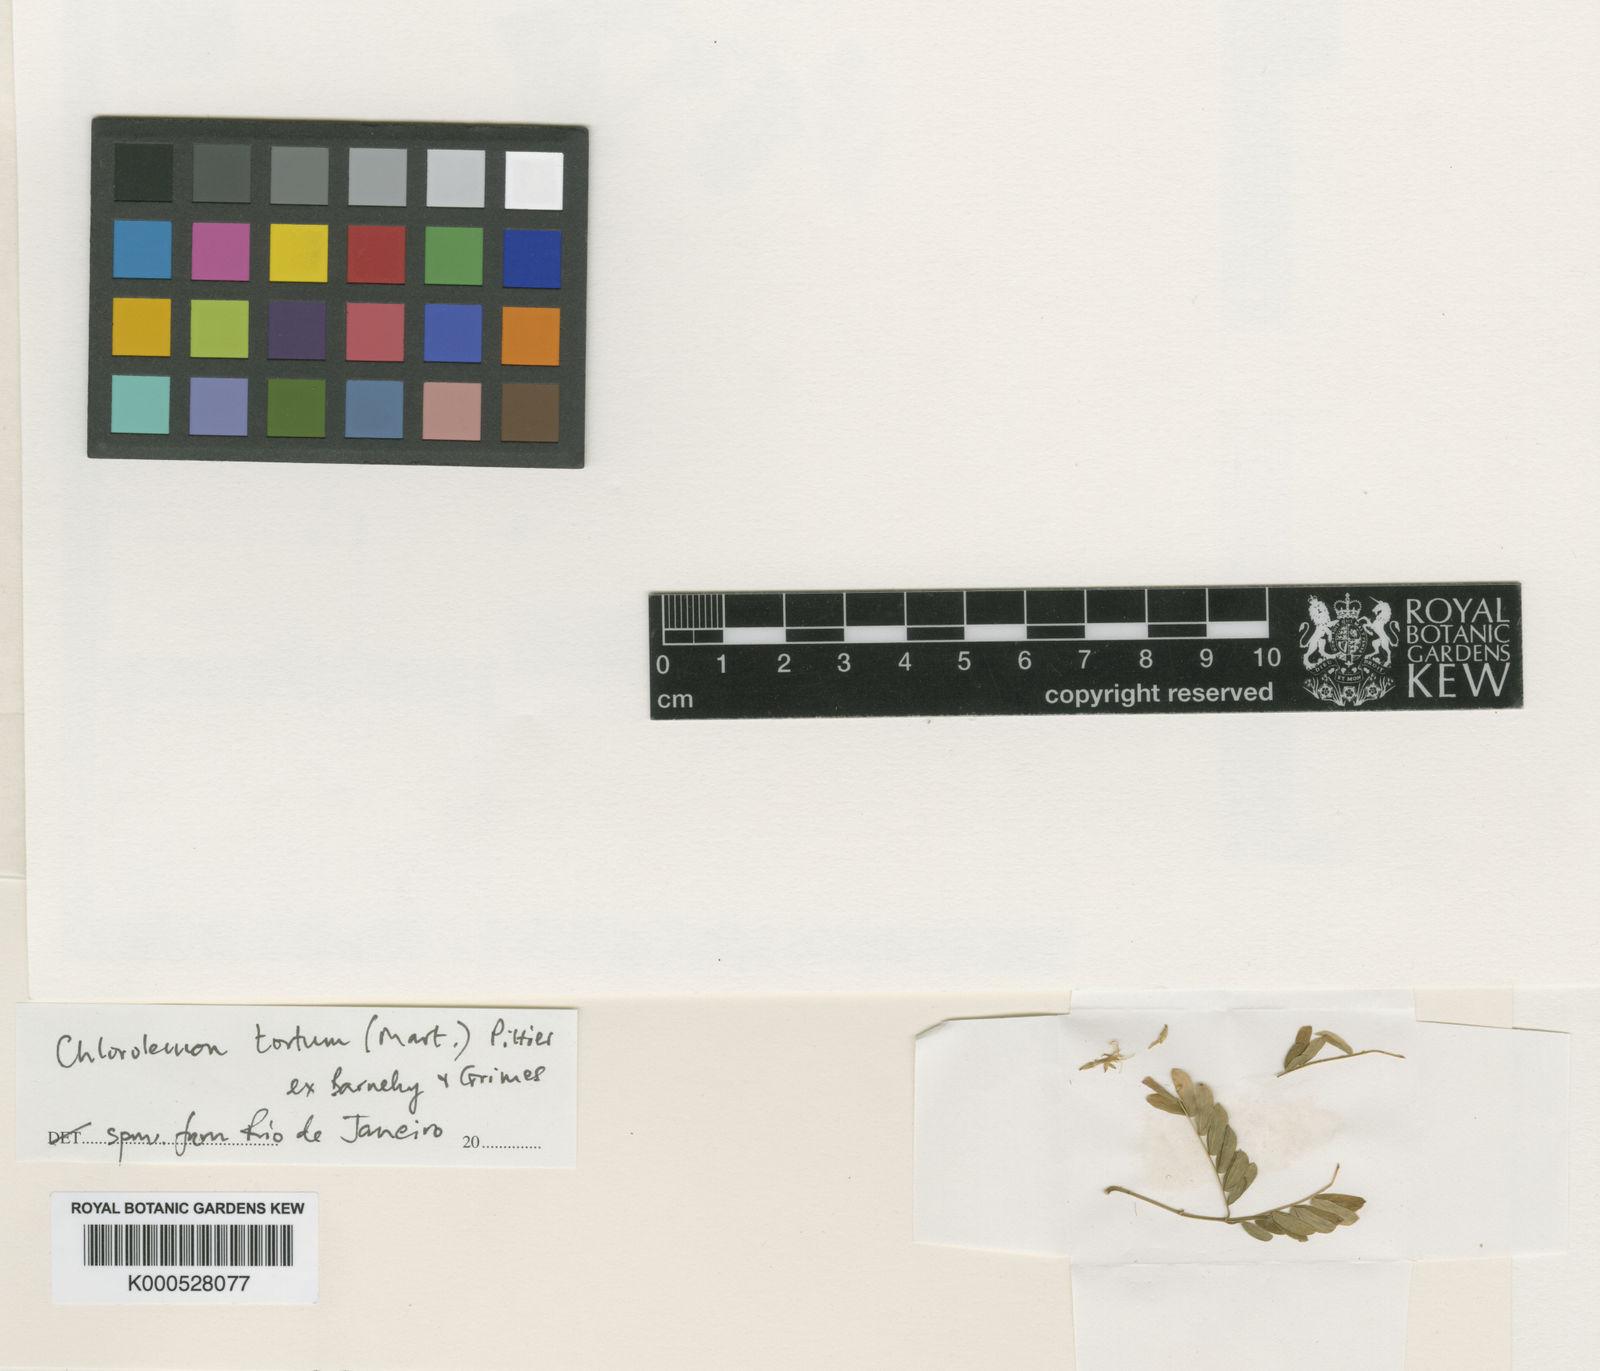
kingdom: Plantae
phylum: Tracheophyta
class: Magnoliopsida
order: Fabales
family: Fabaceae
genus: Chloroleucon
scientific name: Chloroleucon
